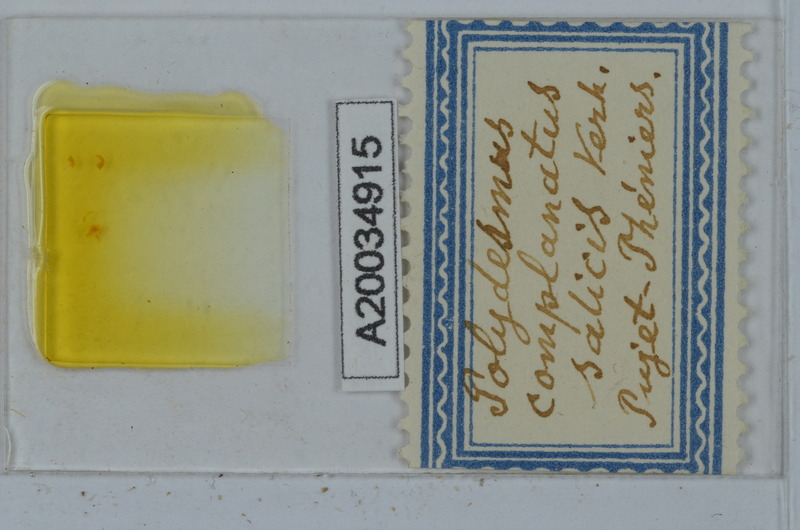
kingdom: Animalia
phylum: Arthropoda
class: Diplopoda
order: Polydesmida
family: Polydesmidae
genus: Polydesmus
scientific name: Polydesmus complanatus
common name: Flat-backed millipede
